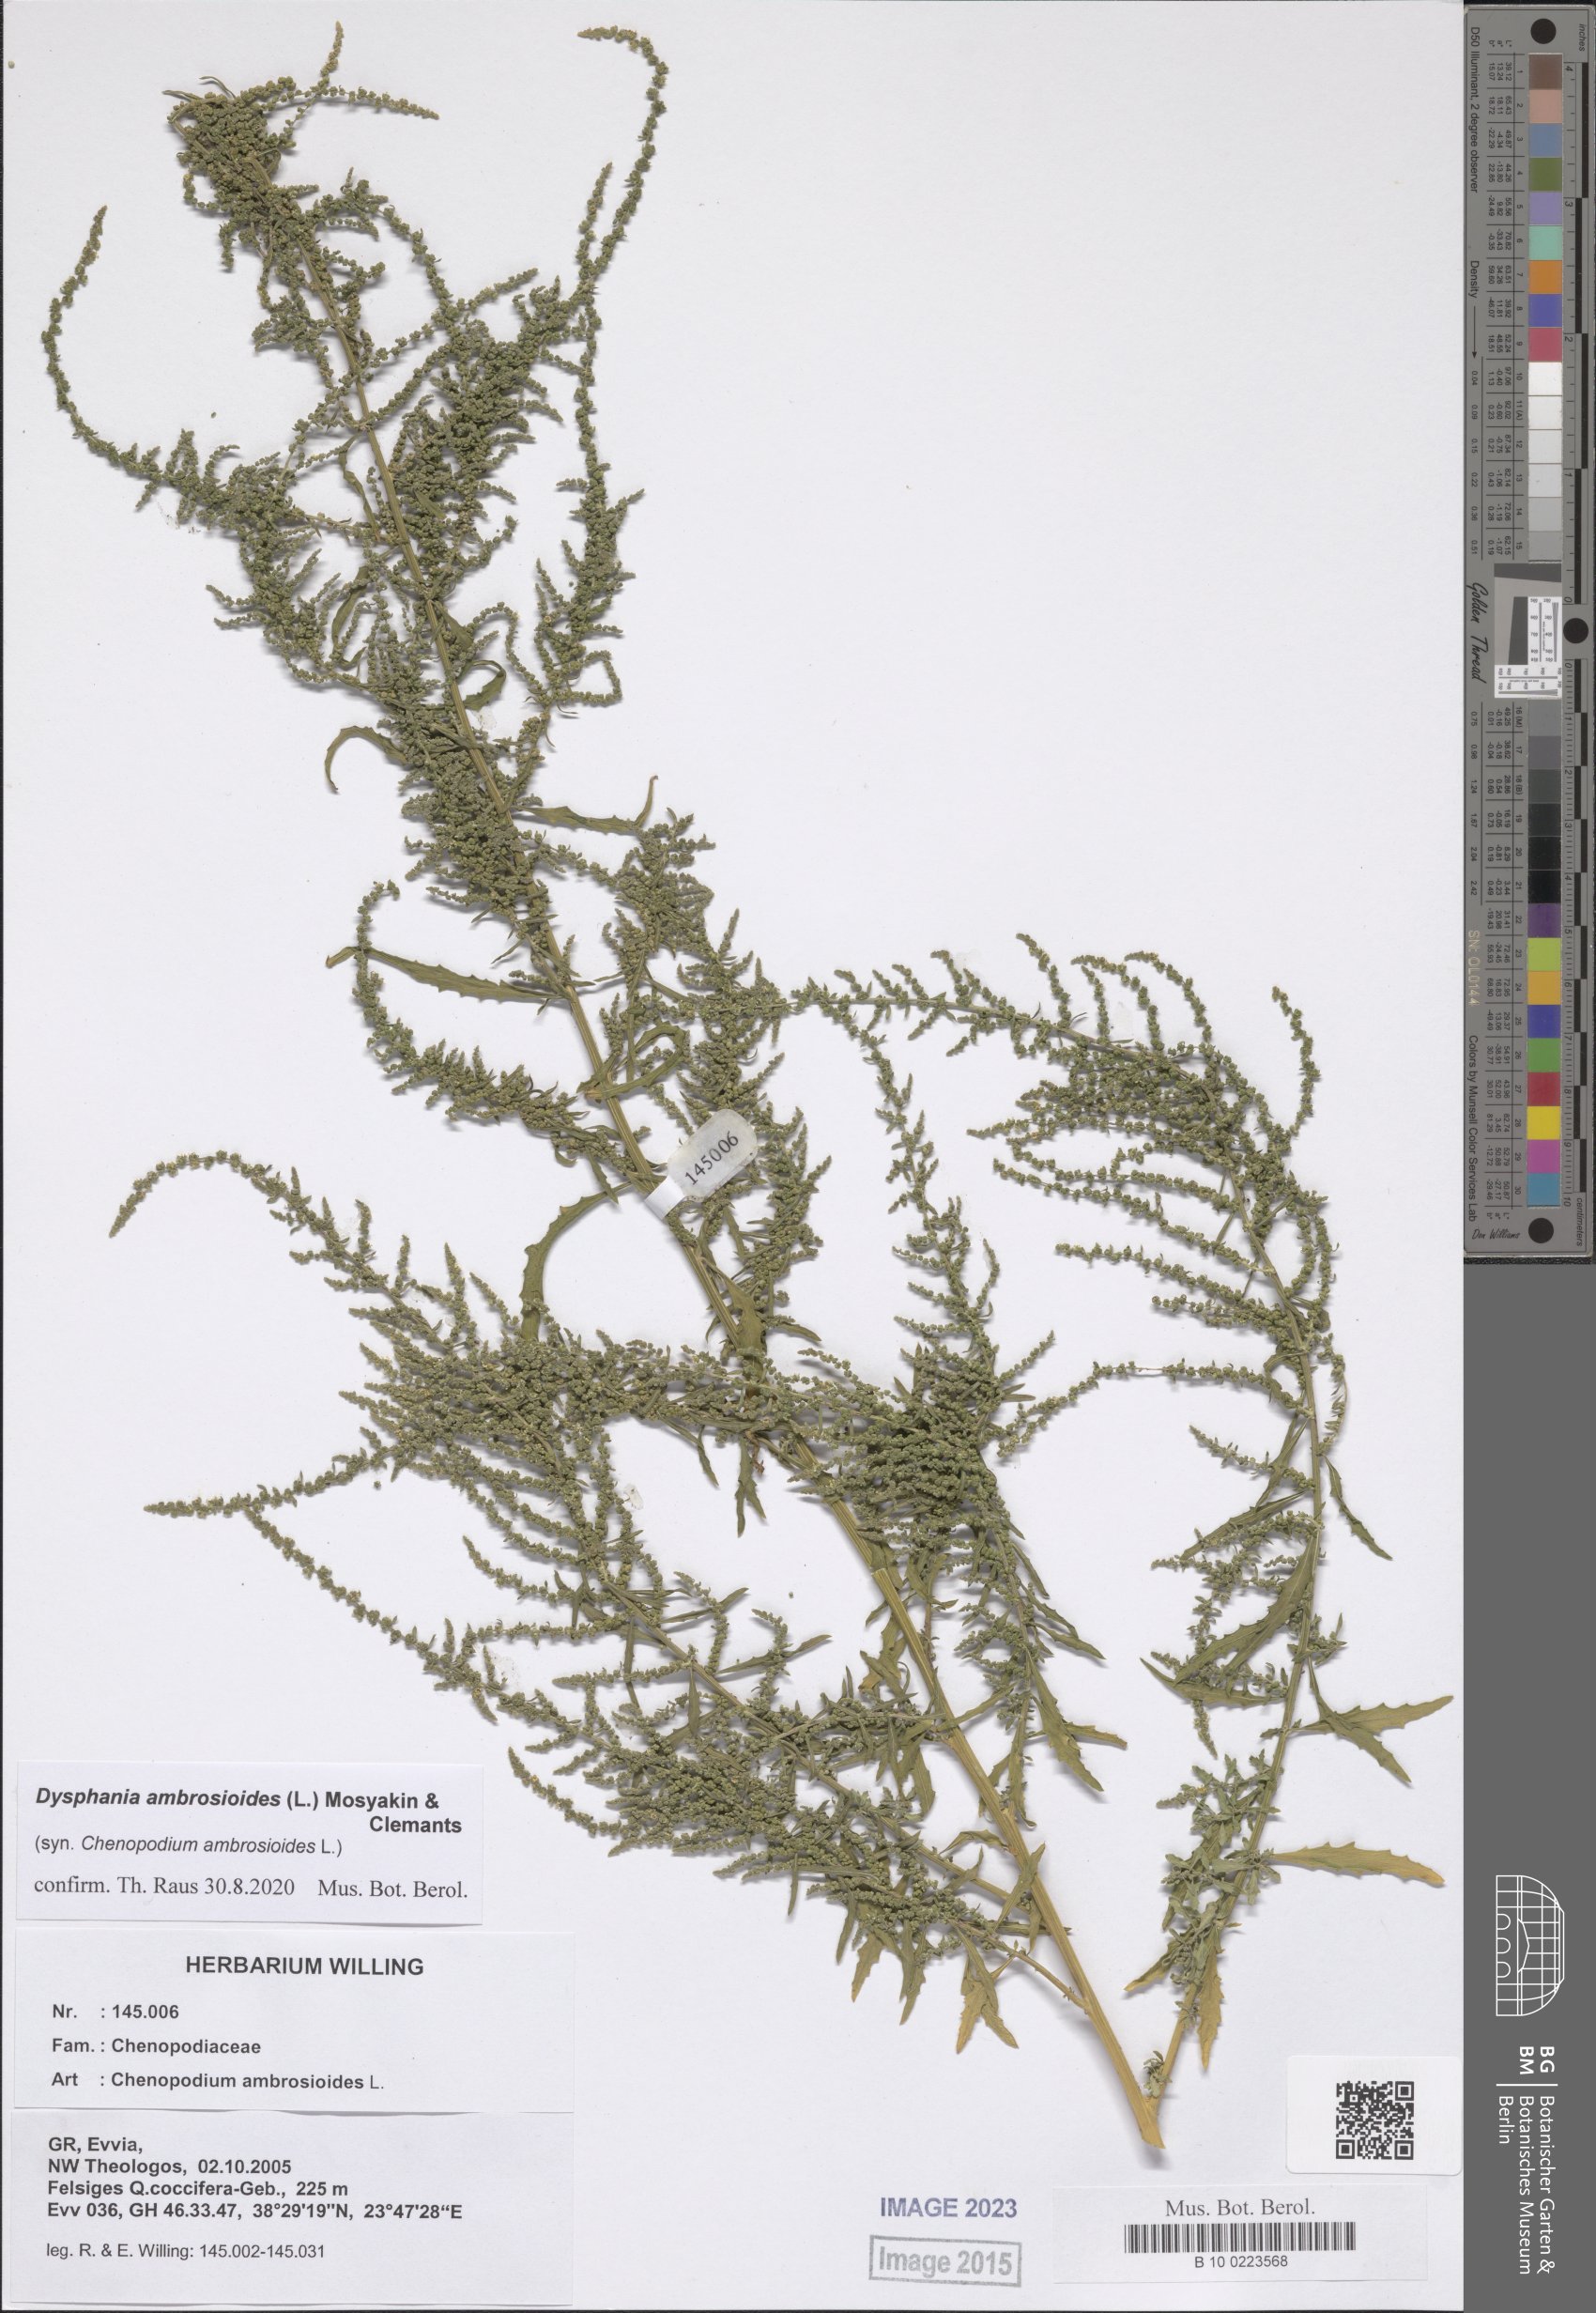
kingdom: Plantae
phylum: Tracheophyta
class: Magnoliopsida
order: Caryophyllales
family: Amaranthaceae
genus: Dysphania
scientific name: Dysphania ambrosioides
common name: Wormseed
